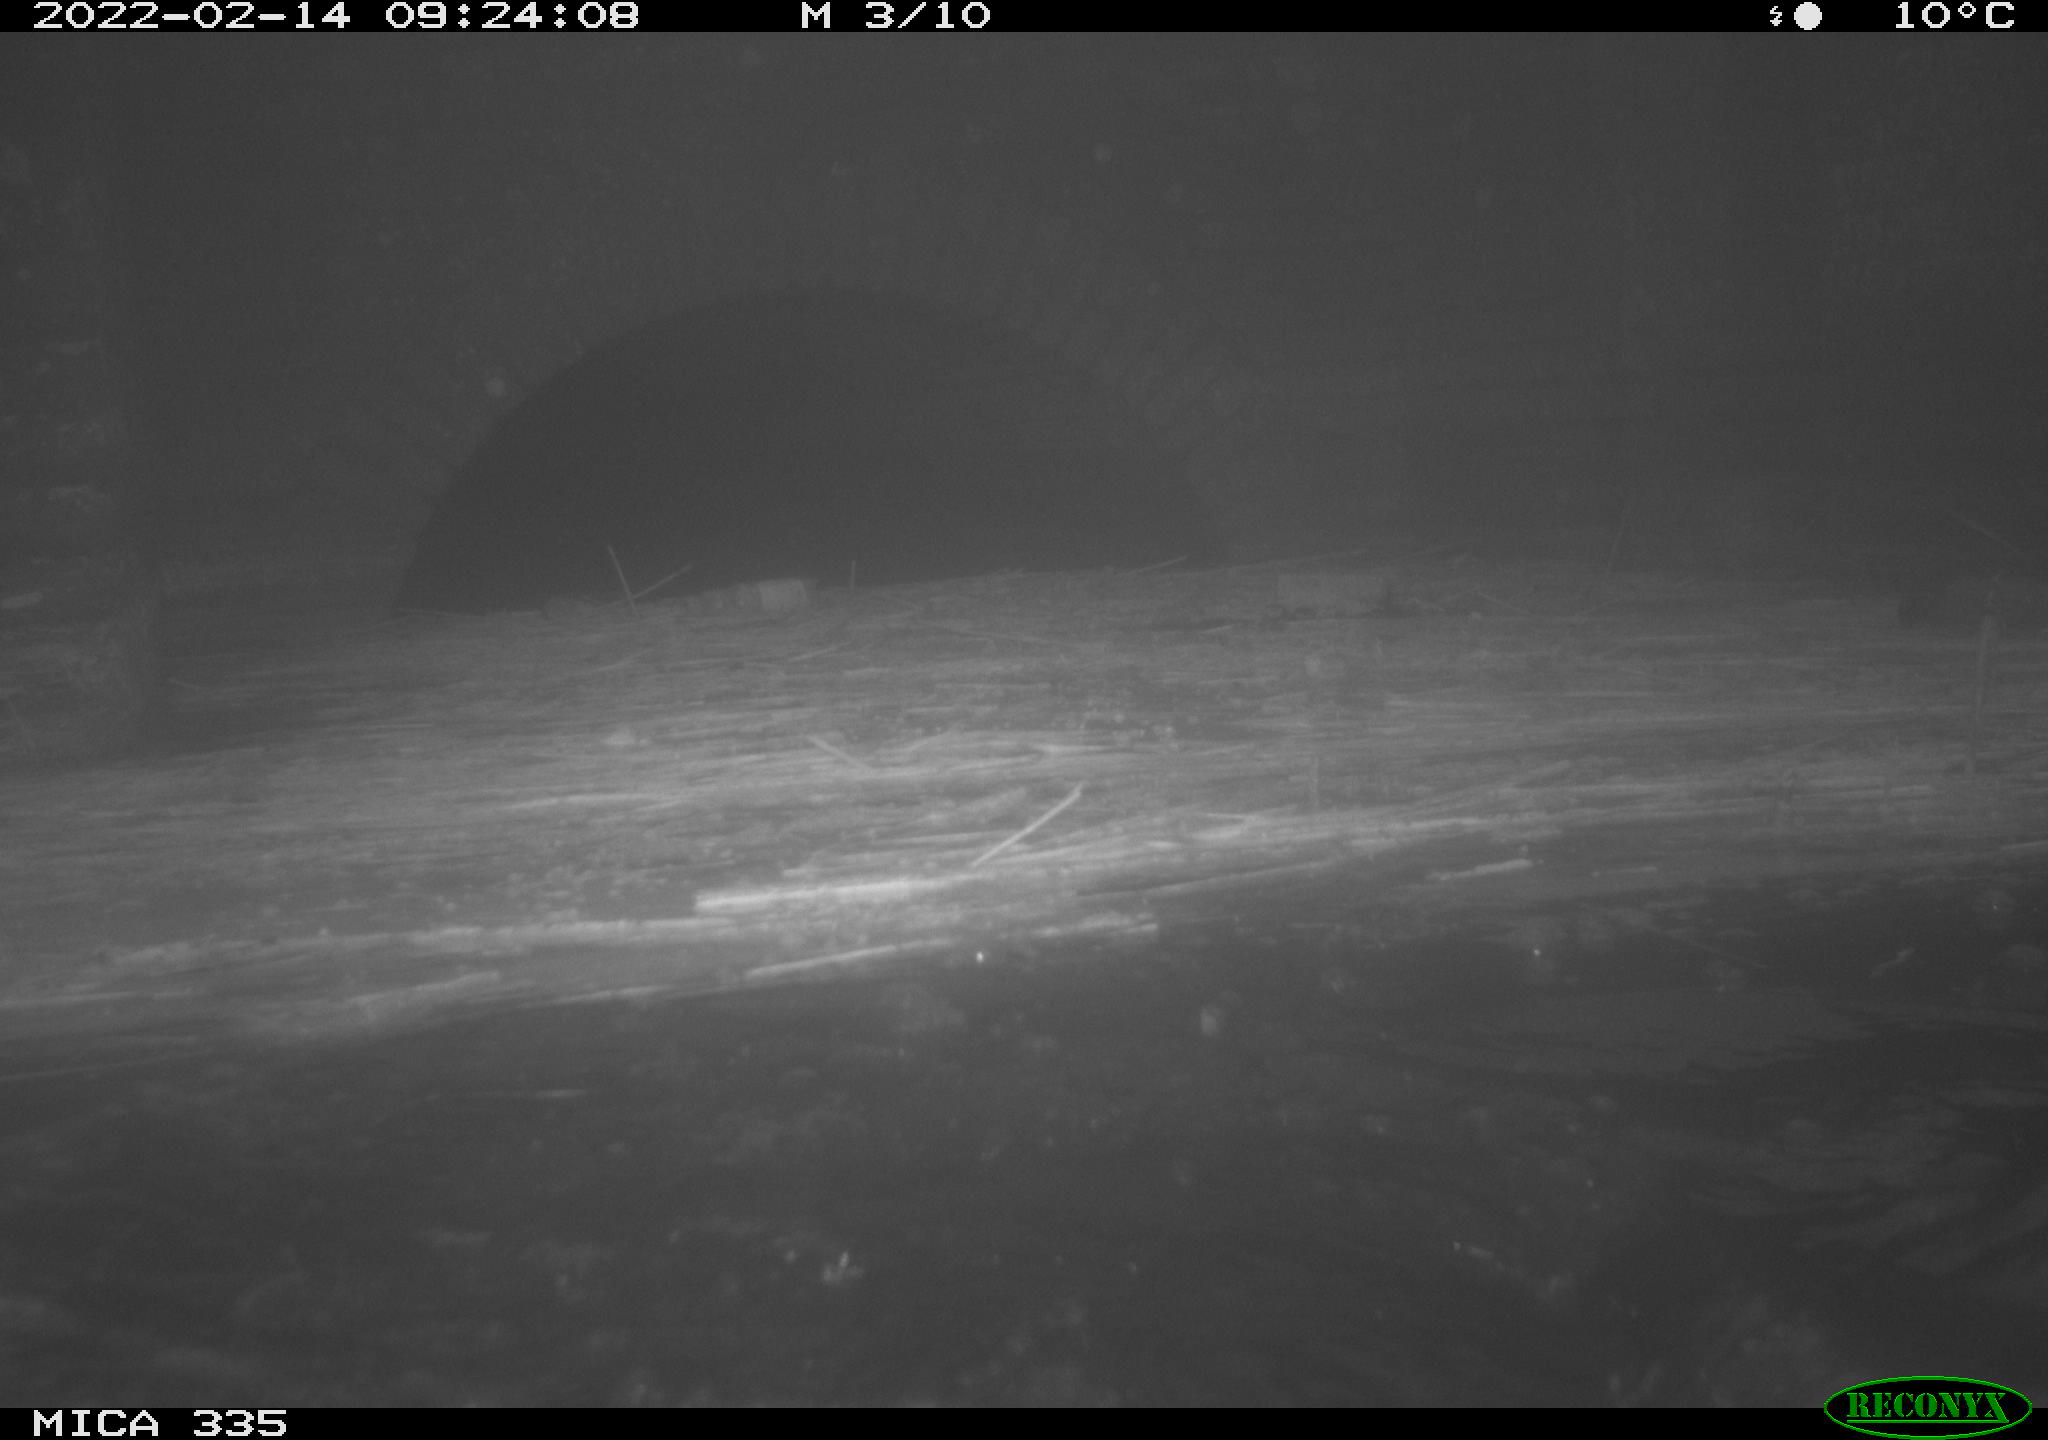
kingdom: Animalia
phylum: Chordata
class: Aves
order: Suliformes
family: Phalacrocoracidae
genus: Phalacrocorax
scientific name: Phalacrocorax carbo
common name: Great cormorant
